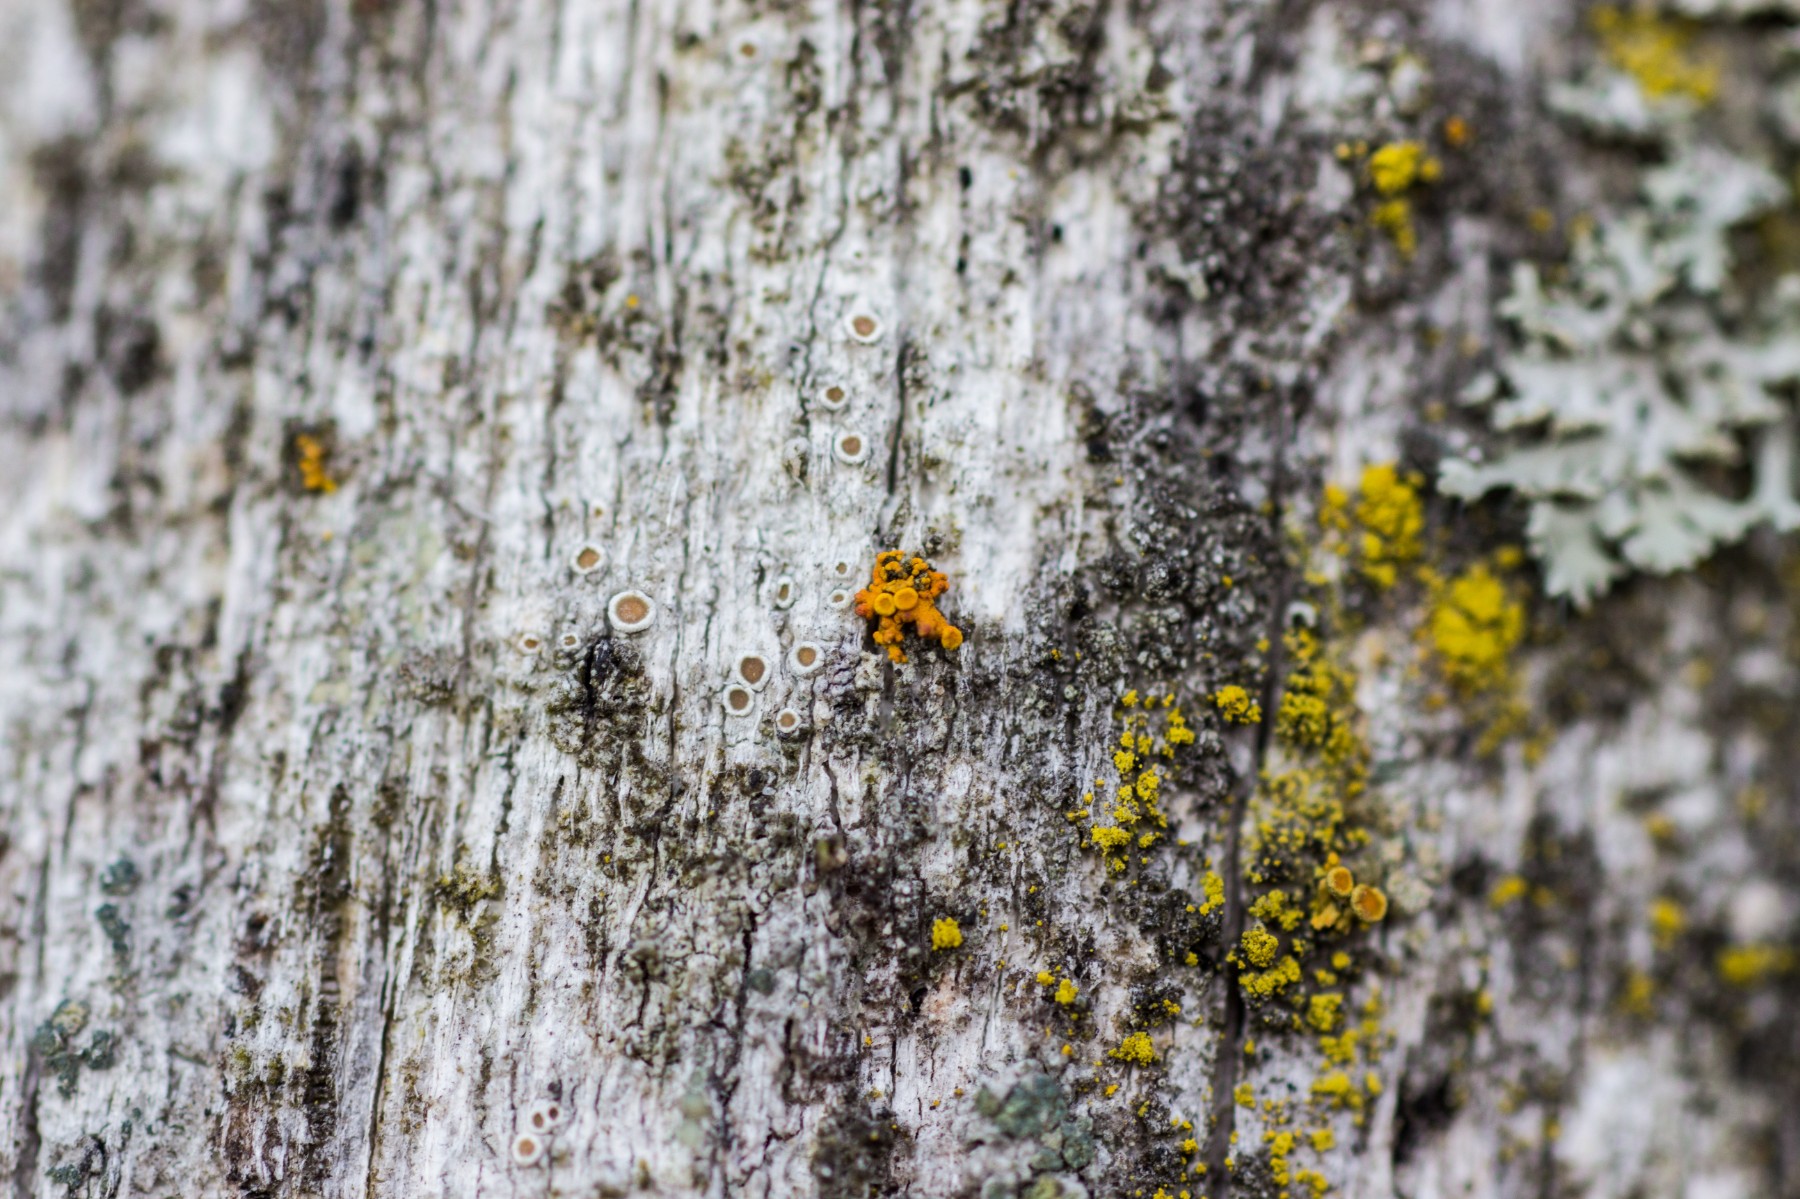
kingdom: Fungi
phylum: Ascomycota
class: Lecanoromycetes
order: Teloschistales
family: Teloschistaceae
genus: Polycauliona
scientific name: Polycauliona polycarpa
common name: mangefrugtet orangelav
